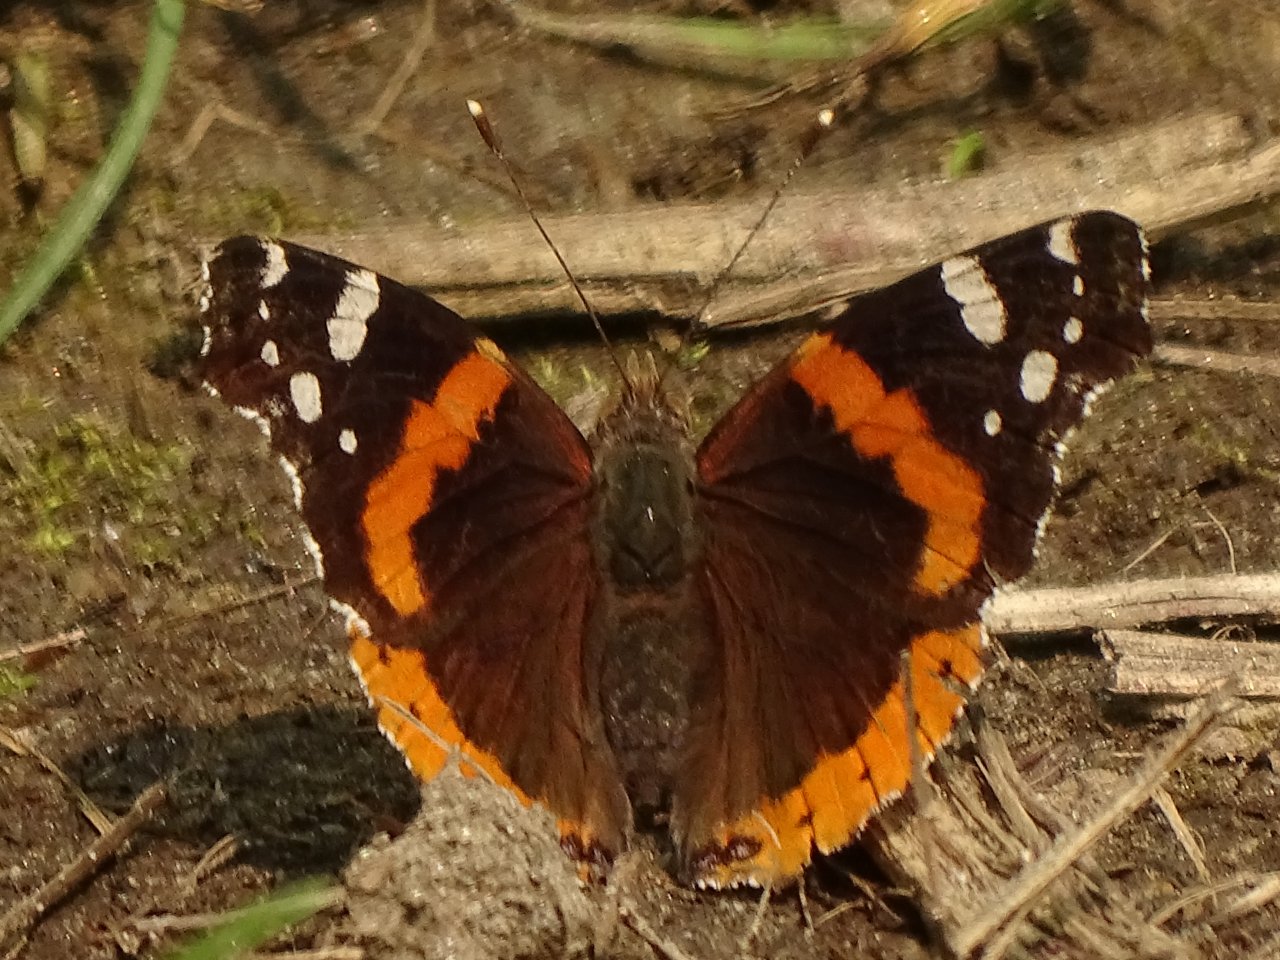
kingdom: Animalia
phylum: Arthropoda
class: Insecta
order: Lepidoptera
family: Nymphalidae
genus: Vanessa
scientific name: Vanessa atalanta
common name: Red Admiral
